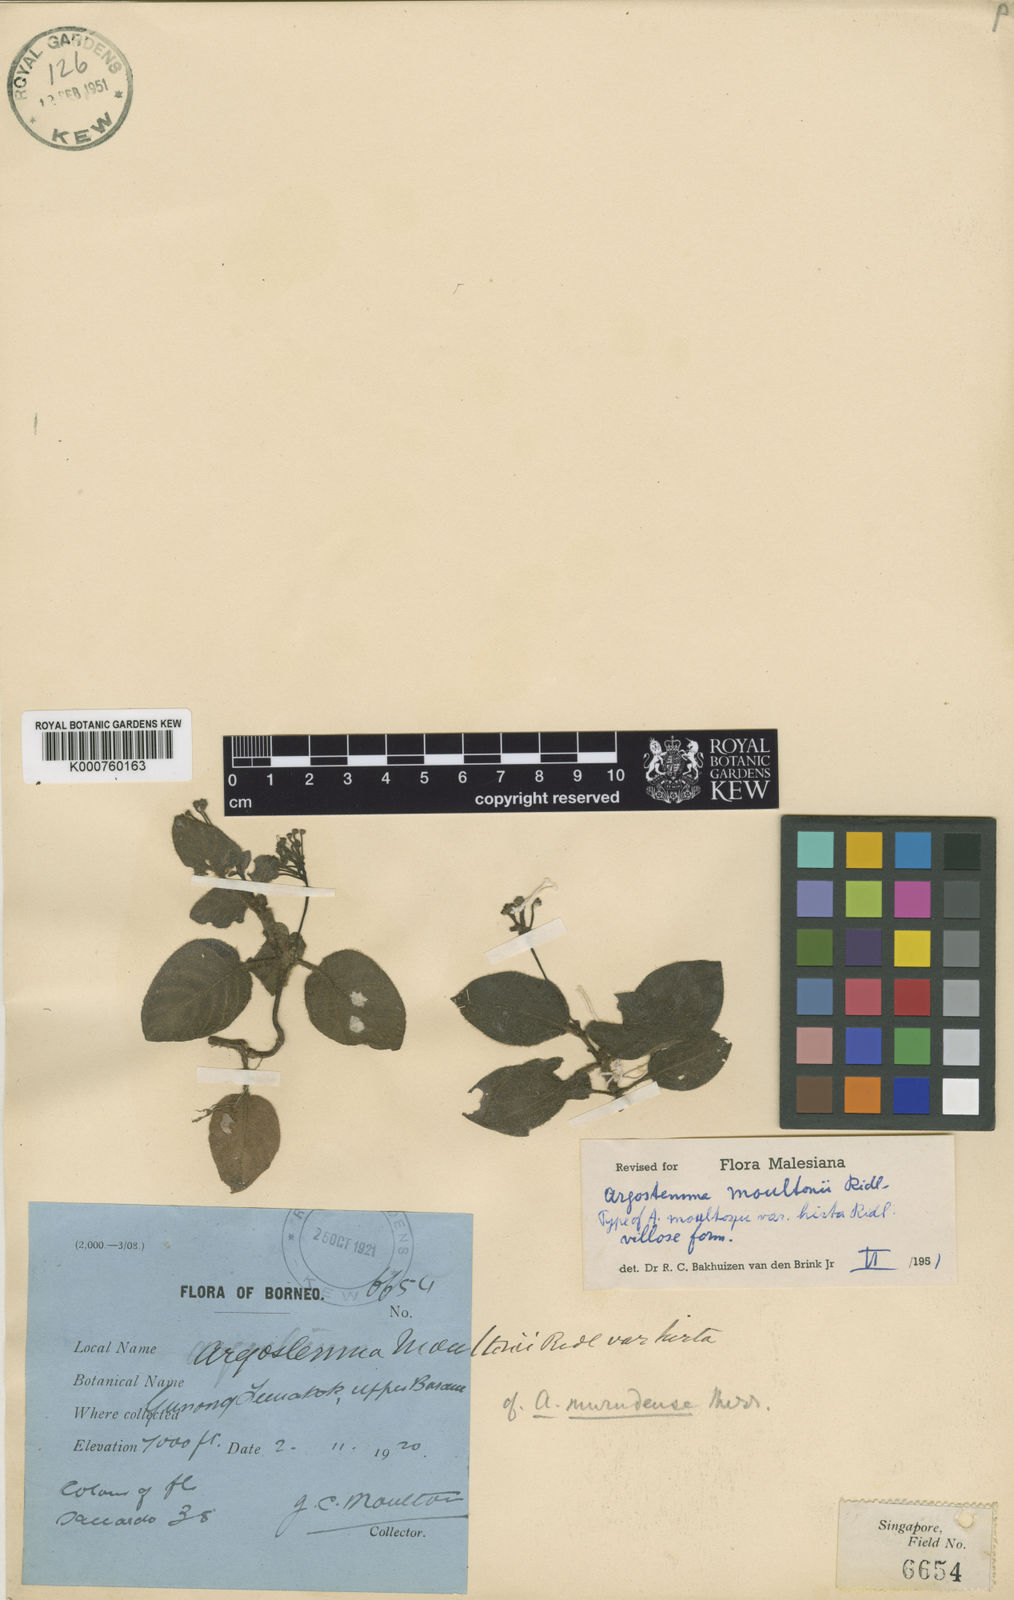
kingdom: Plantae
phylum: Tracheophyta
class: Magnoliopsida
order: Gentianales
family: Rubiaceae
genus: Argostemma
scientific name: Argostemma moultonii
